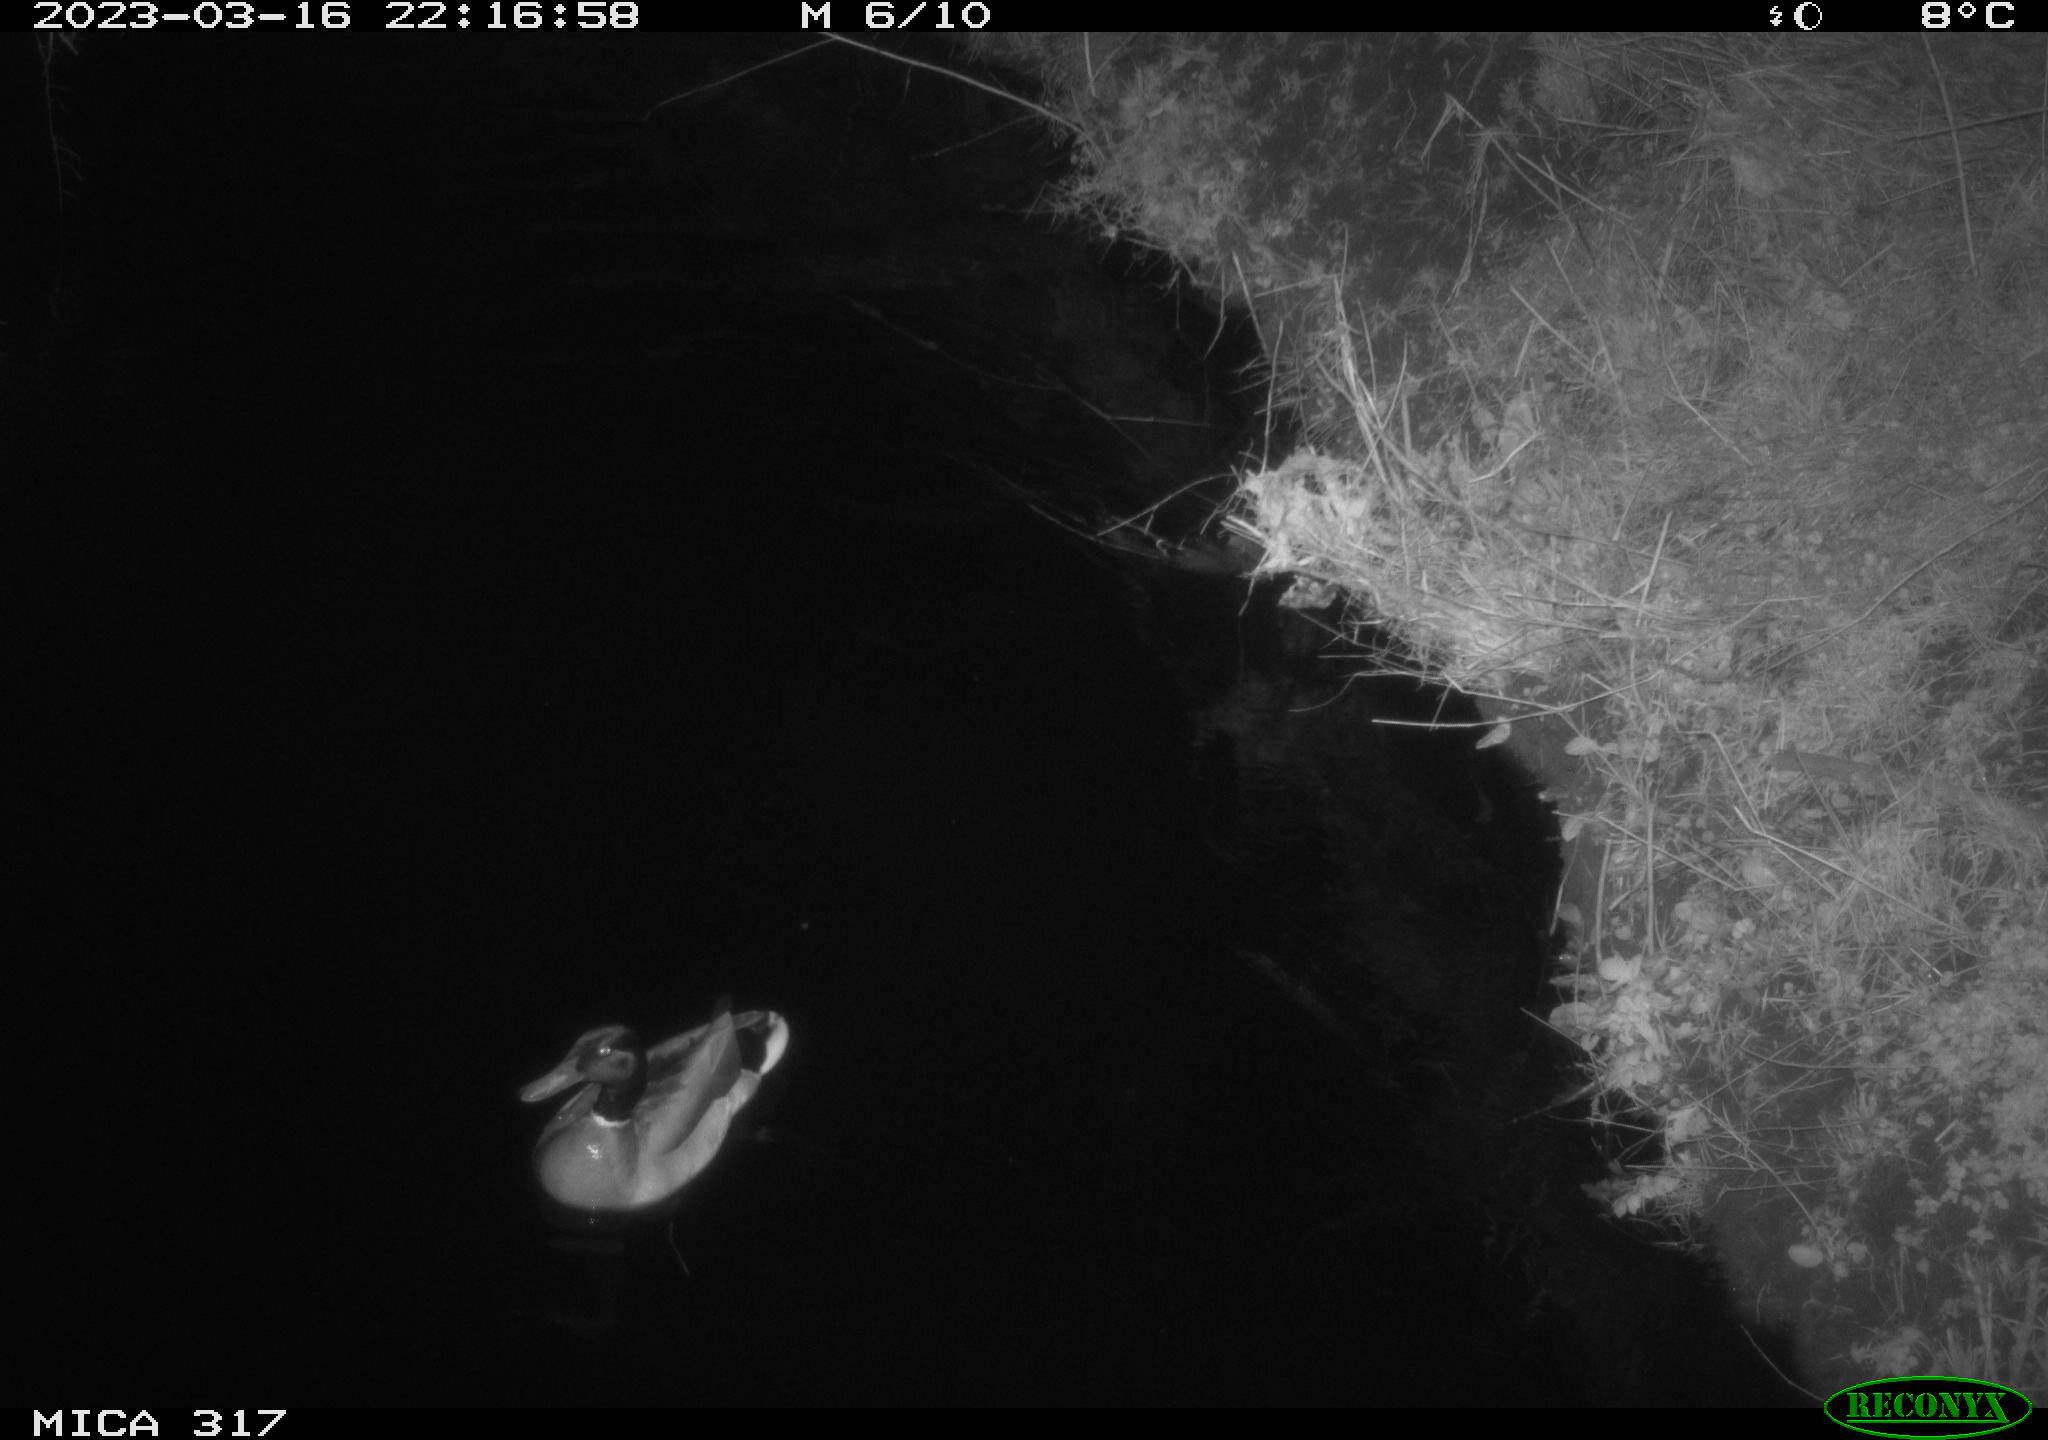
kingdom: Animalia
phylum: Chordata
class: Aves
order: Anseriformes
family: Anatidae
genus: Anas
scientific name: Anas
